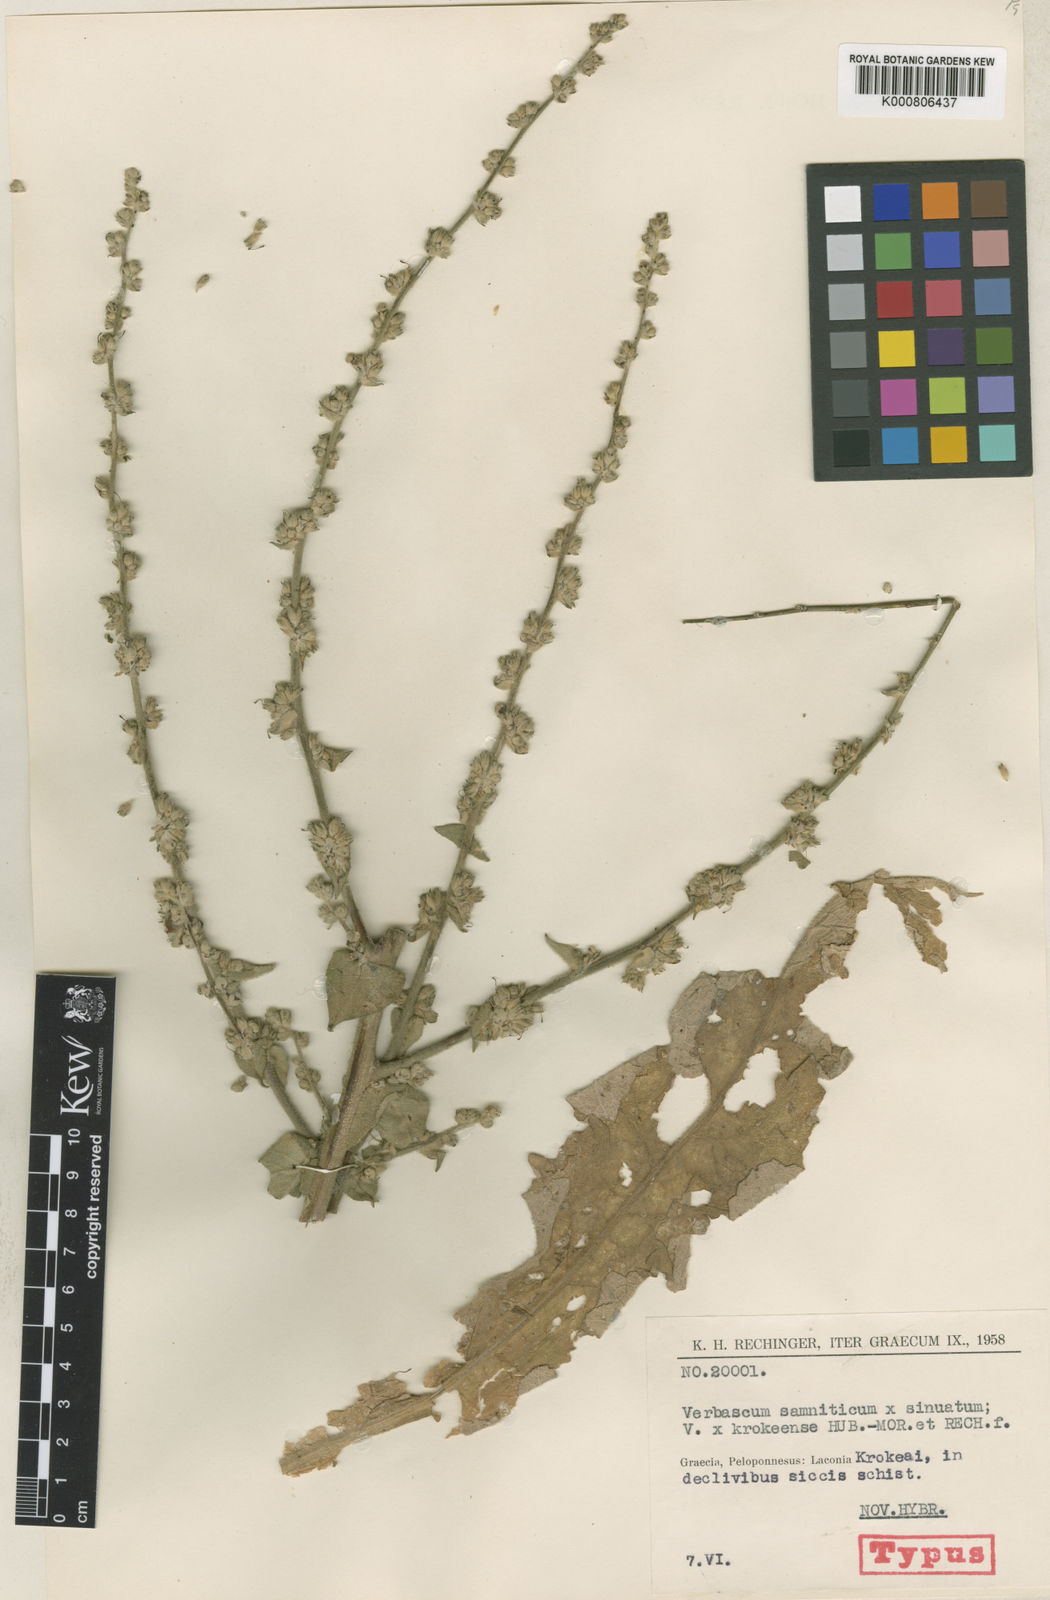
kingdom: Plantae
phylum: Tracheophyta
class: Magnoliopsida
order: Lamiales
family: Scrophulariaceae
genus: Verbascum
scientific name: Verbascum krokeense
